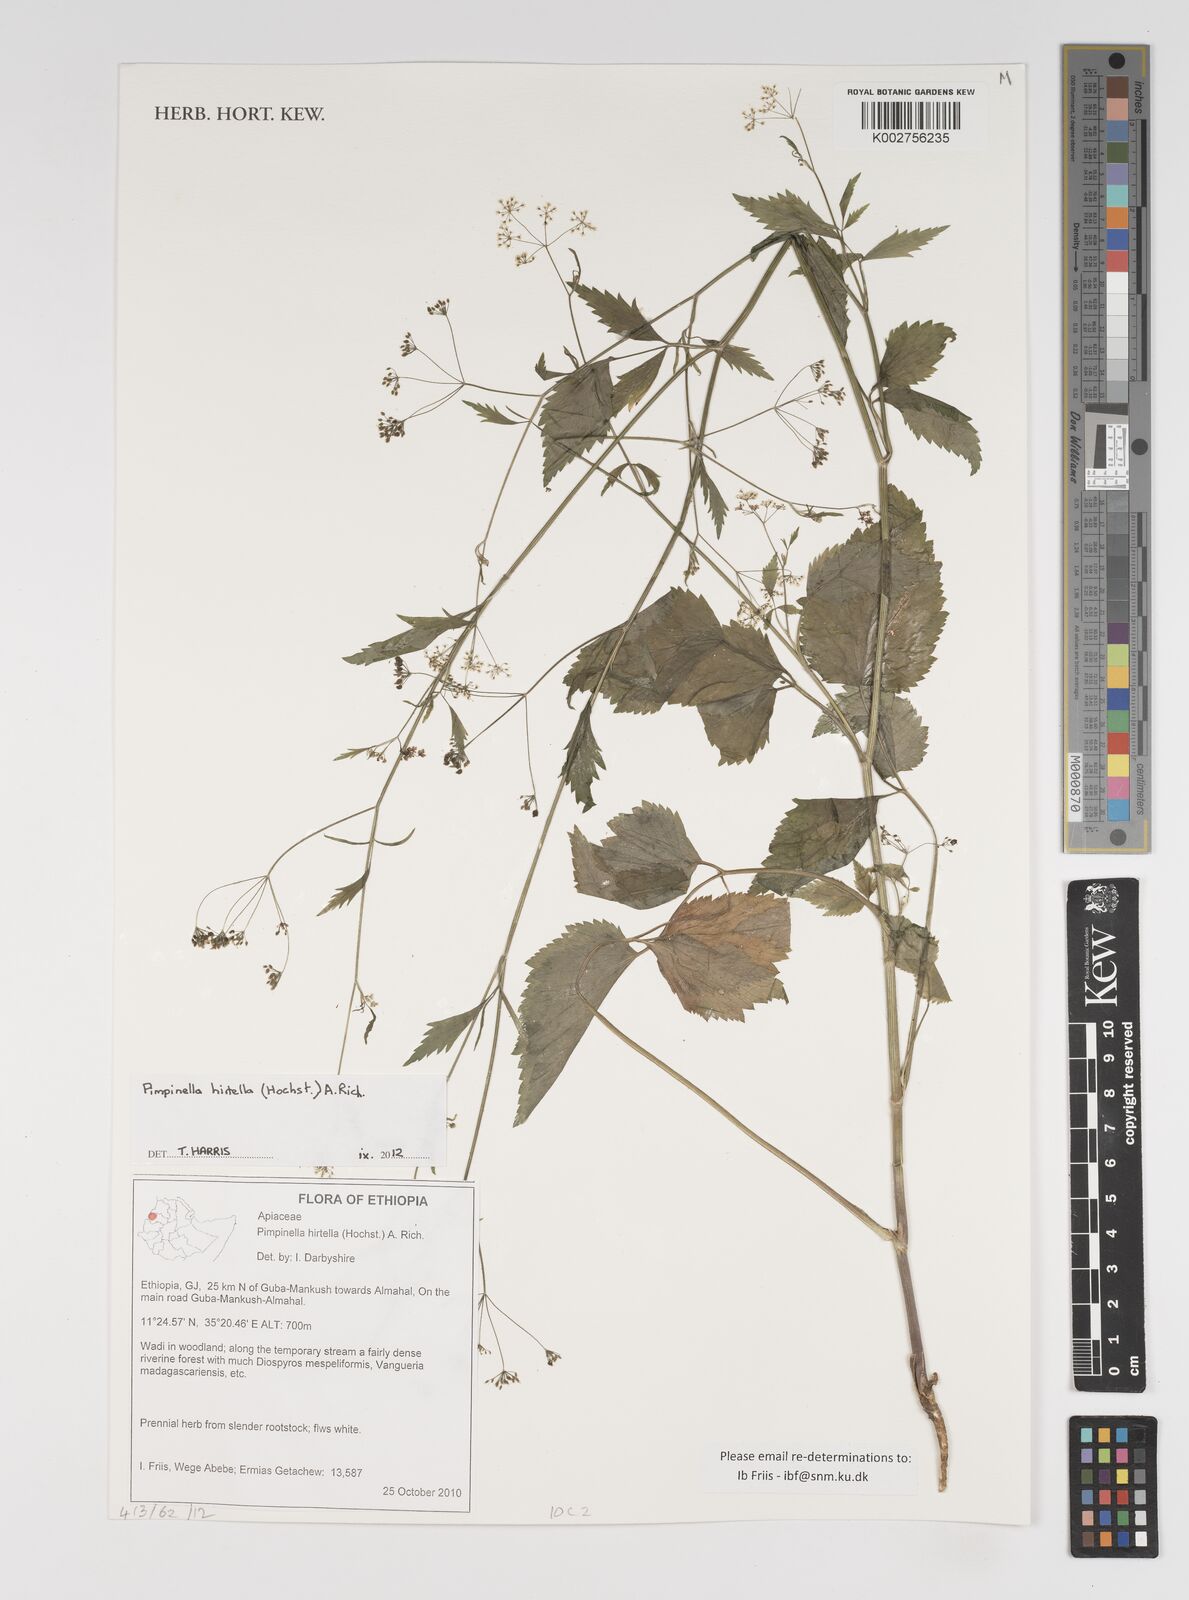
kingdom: Plantae
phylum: Tracheophyta
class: Magnoliopsida
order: Apiales
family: Apiaceae
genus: Pimpinella
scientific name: Pimpinella hirtella
